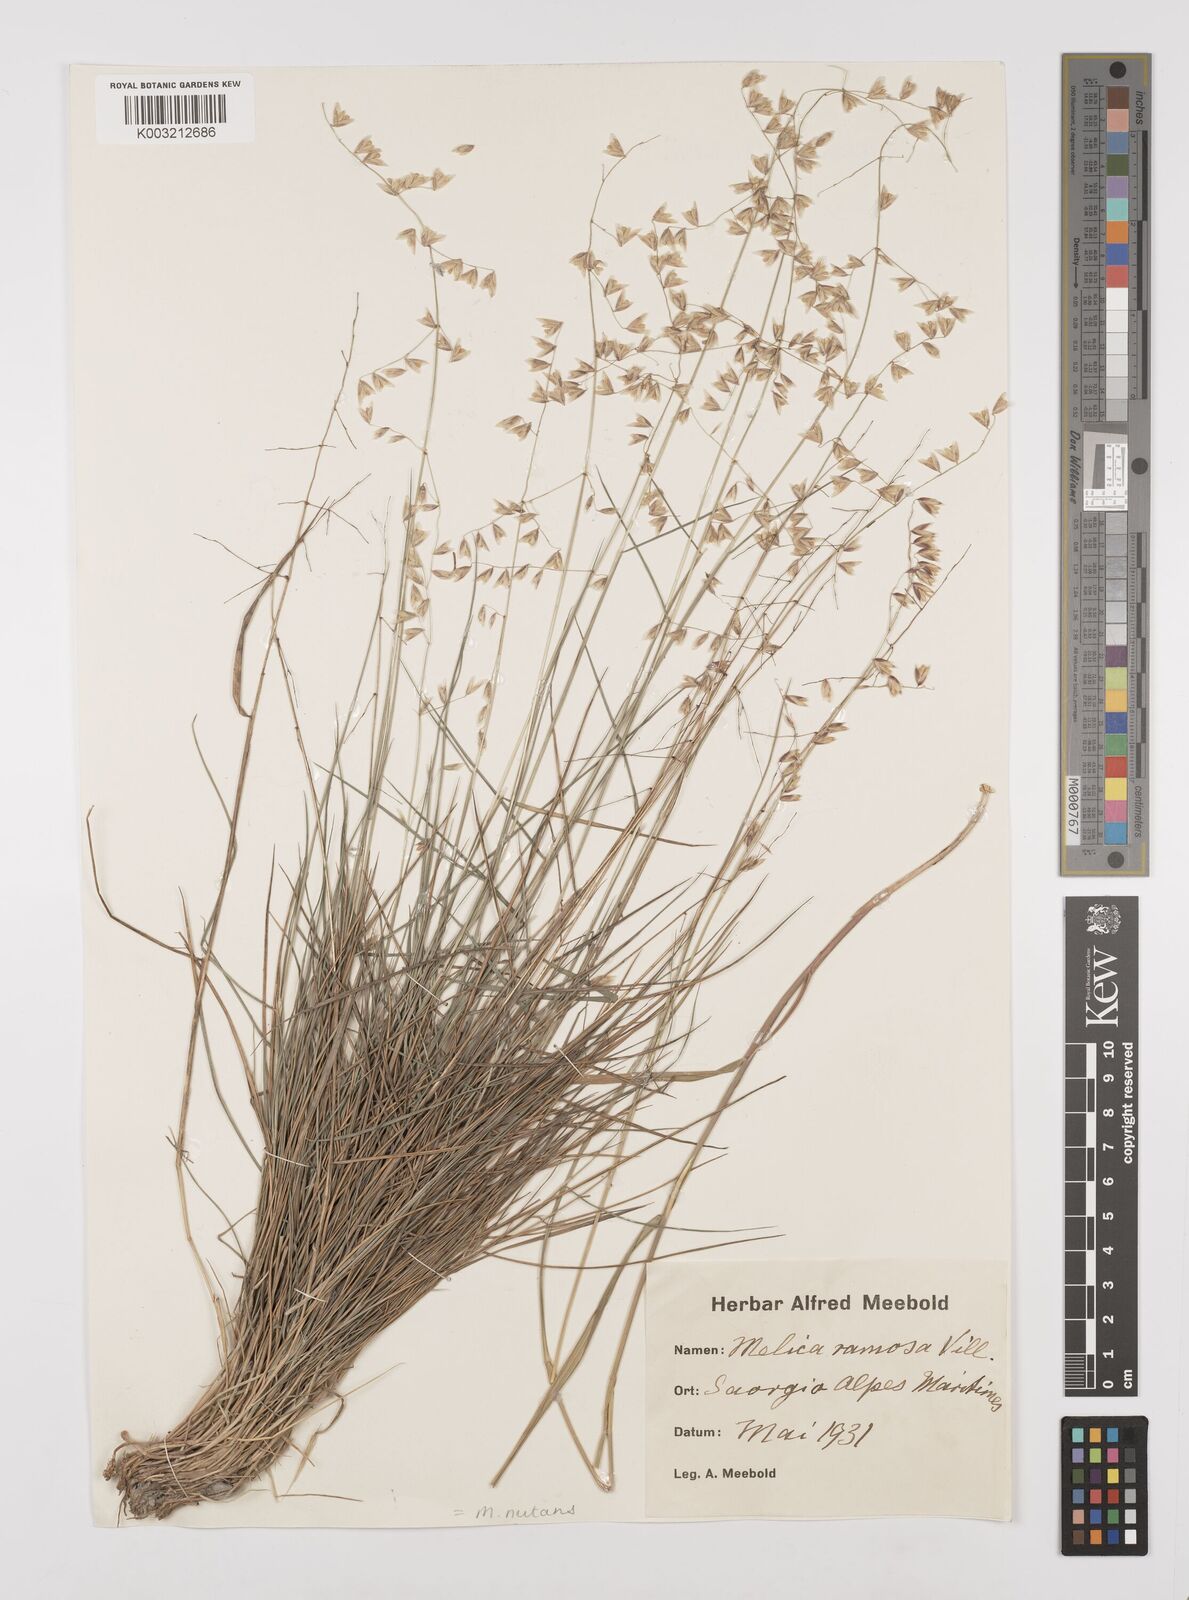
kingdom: Plantae
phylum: Tracheophyta
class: Liliopsida
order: Poales
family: Poaceae
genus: Melica
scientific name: Melica nutans
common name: Mountain melick
